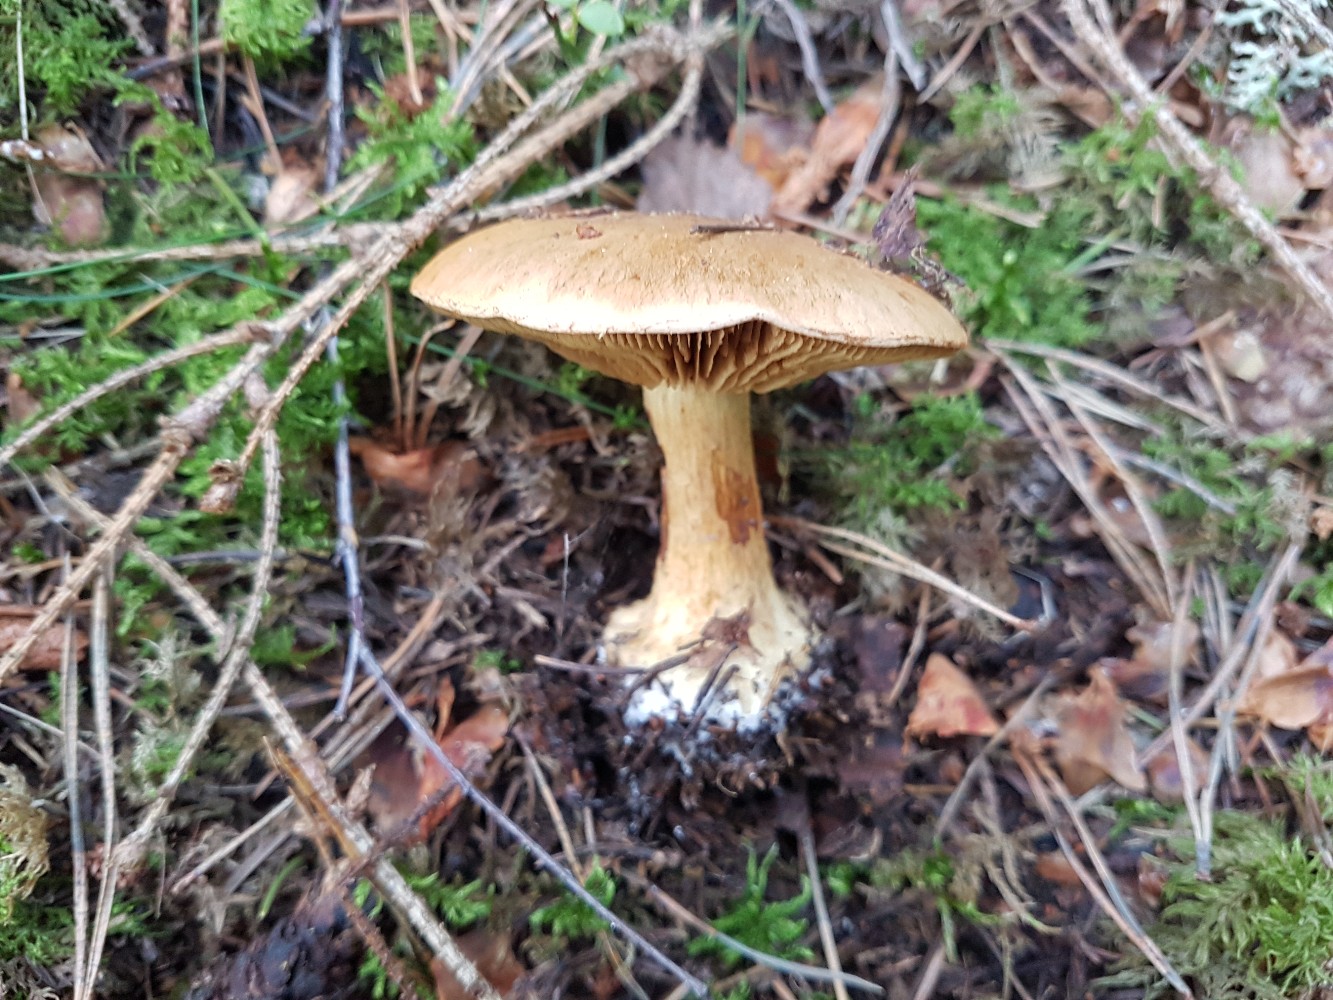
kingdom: Fungi
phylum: Basidiomycota
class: Agaricomycetes
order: Agaricales
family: Cortinariaceae
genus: Calonarius
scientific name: Calonarius sulfurinus
